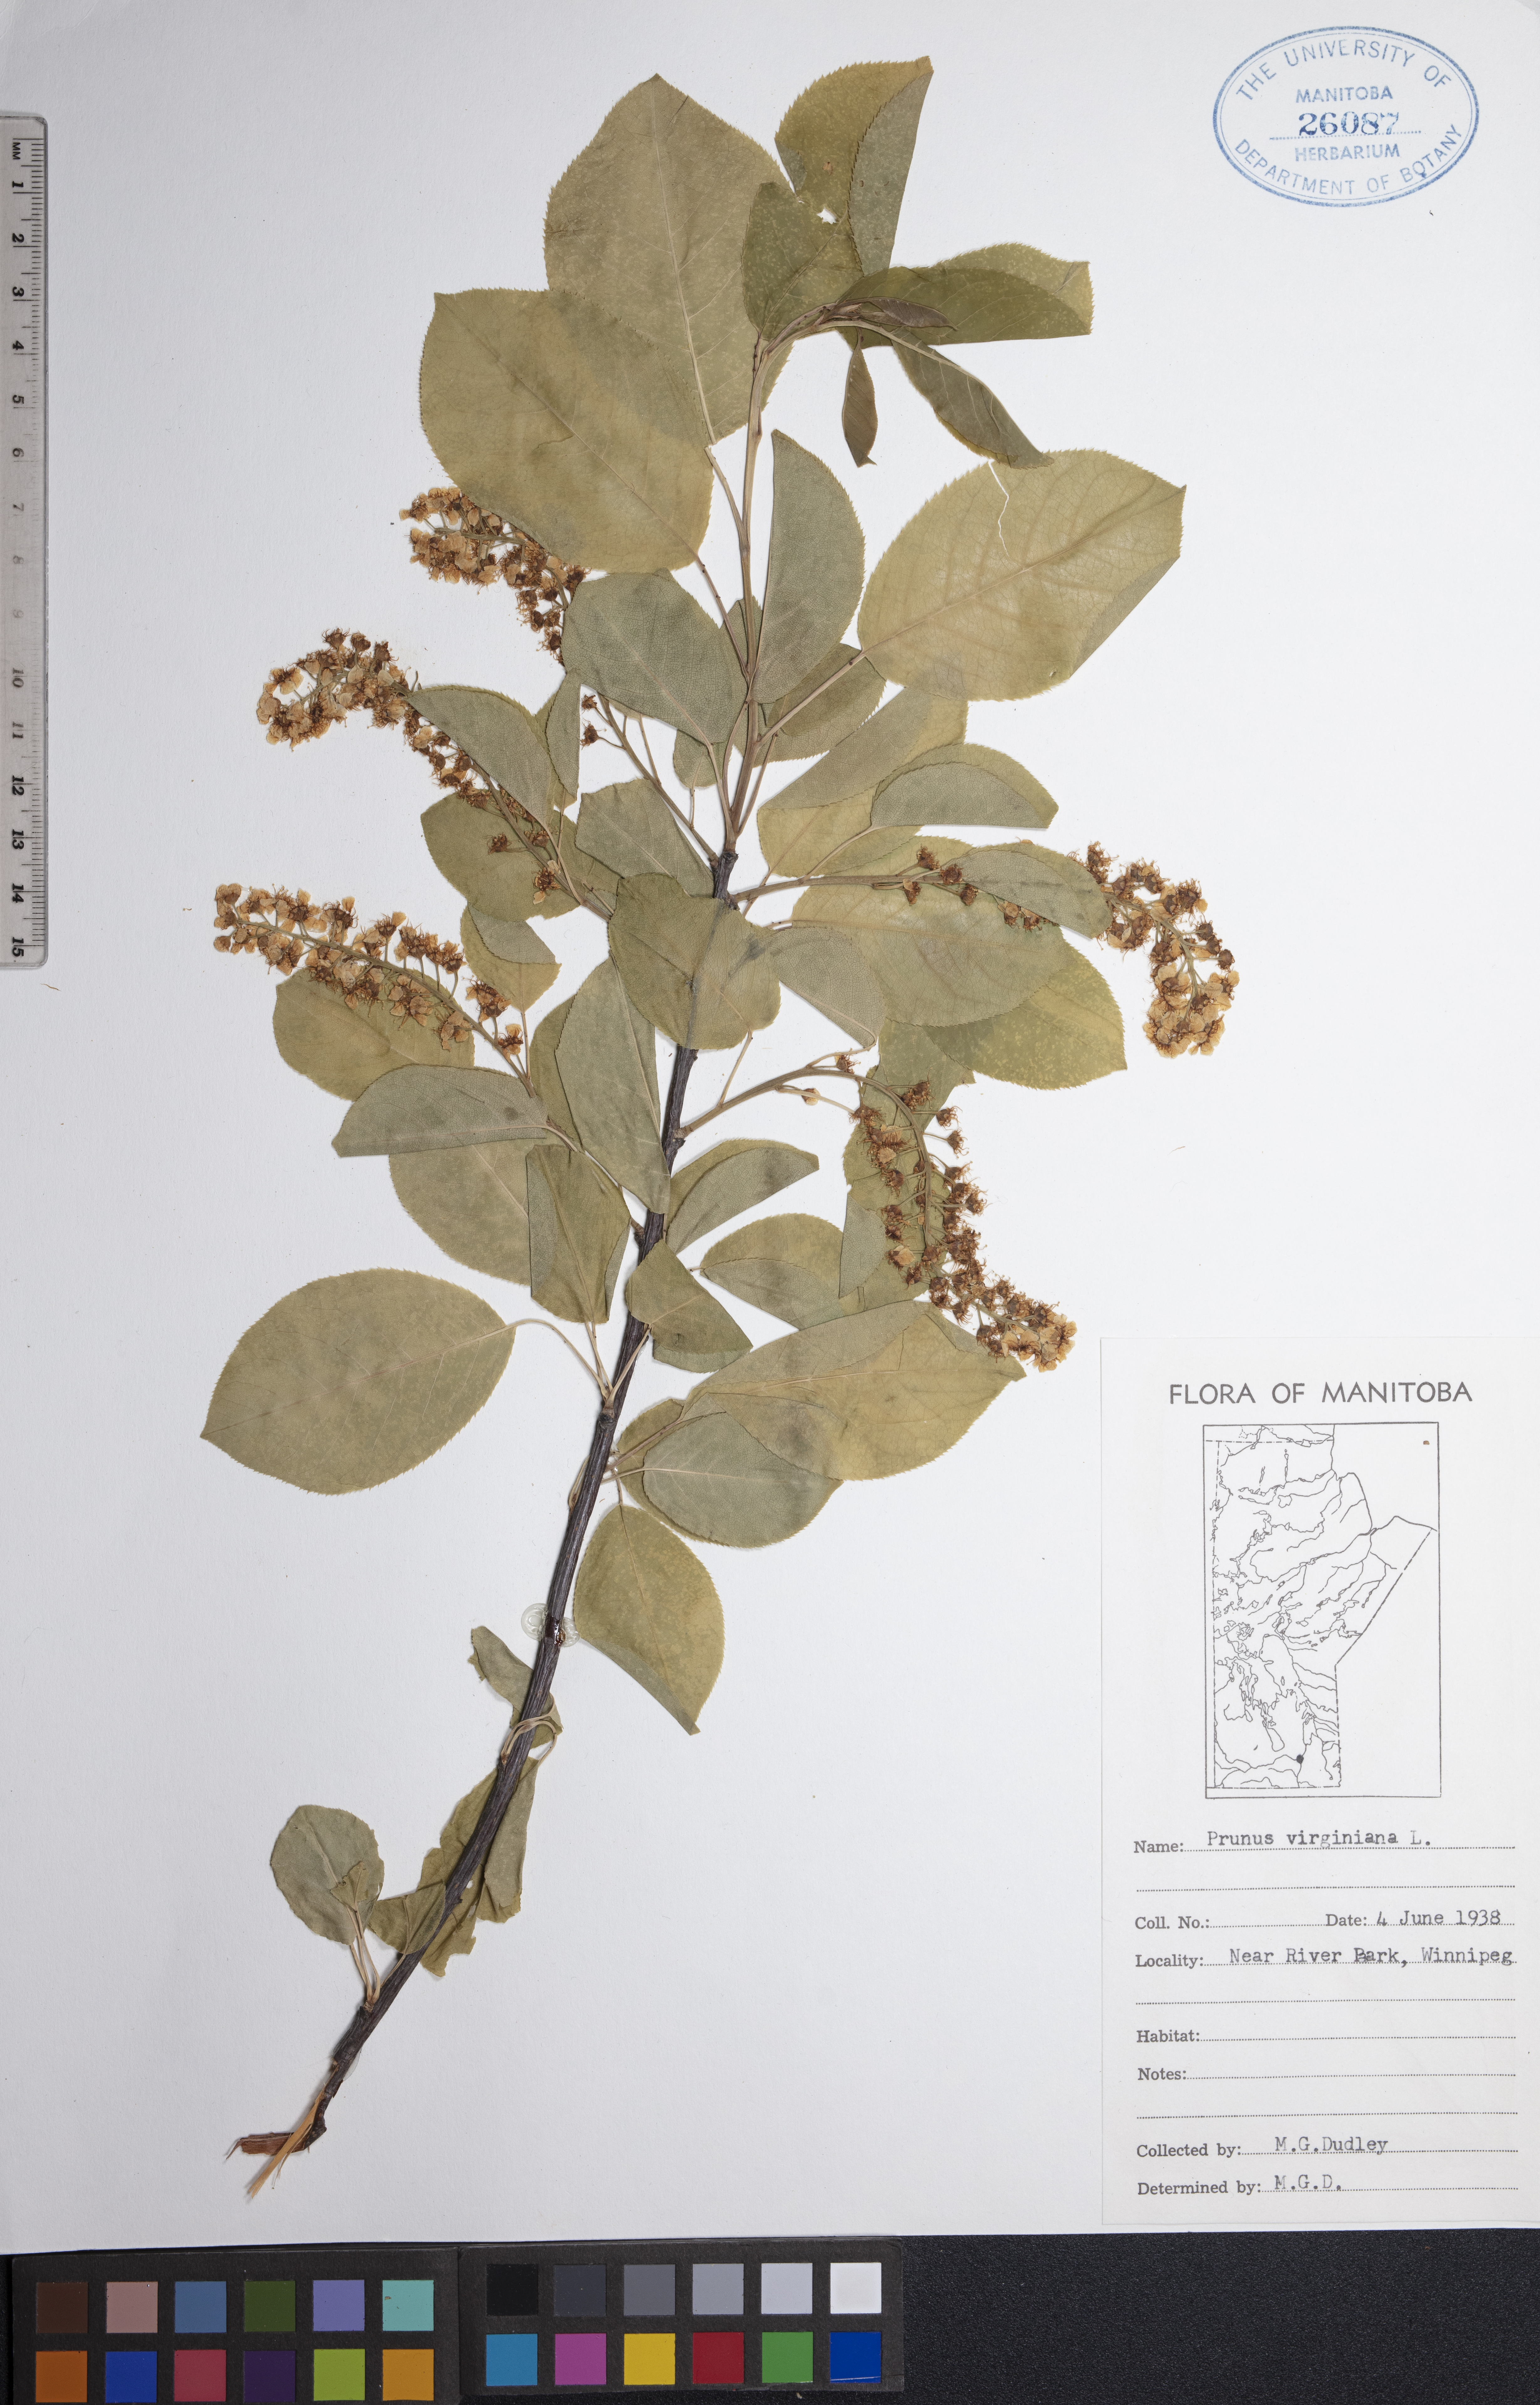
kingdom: Plantae
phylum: Tracheophyta
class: Magnoliopsida
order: Rosales
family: Rosaceae
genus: Prunus
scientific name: Prunus virginiana
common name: Chokecherry
